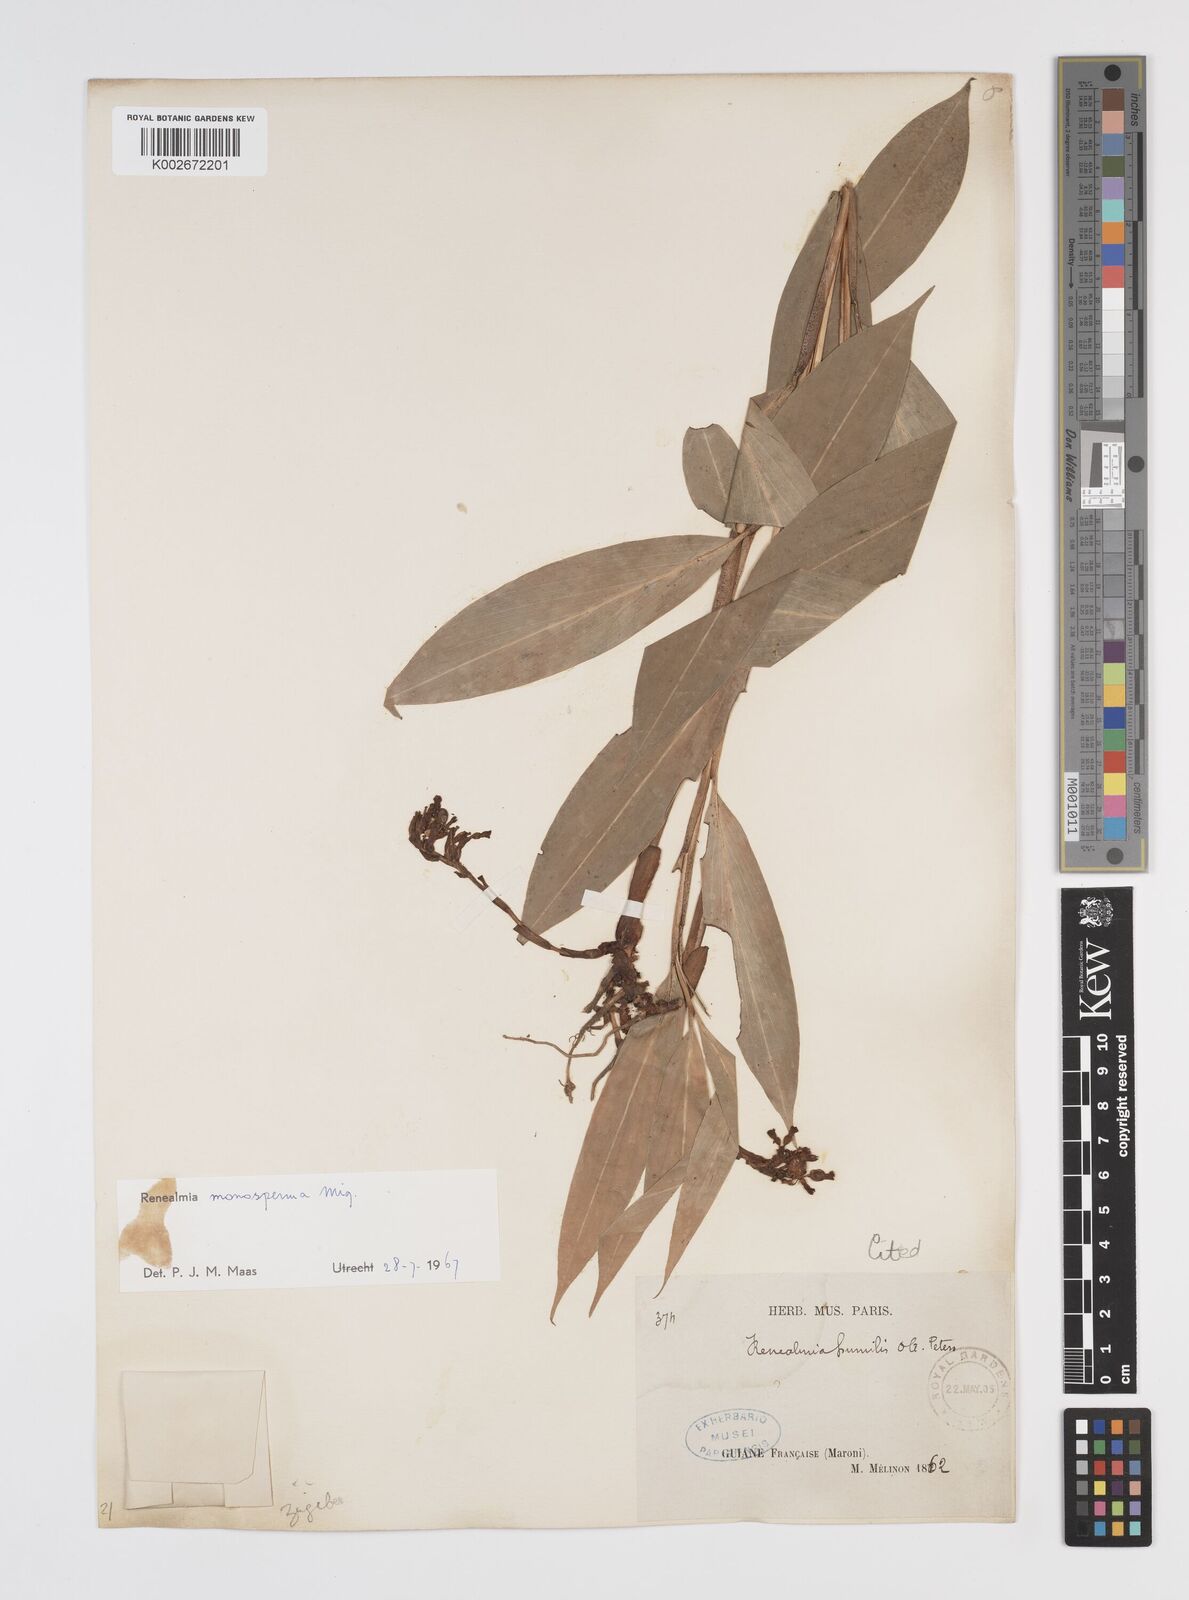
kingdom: Plantae
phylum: Tracheophyta
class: Liliopsida
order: Zingiberales
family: Zingiberaceae
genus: Renealmia
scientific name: Renealmia monosperma
